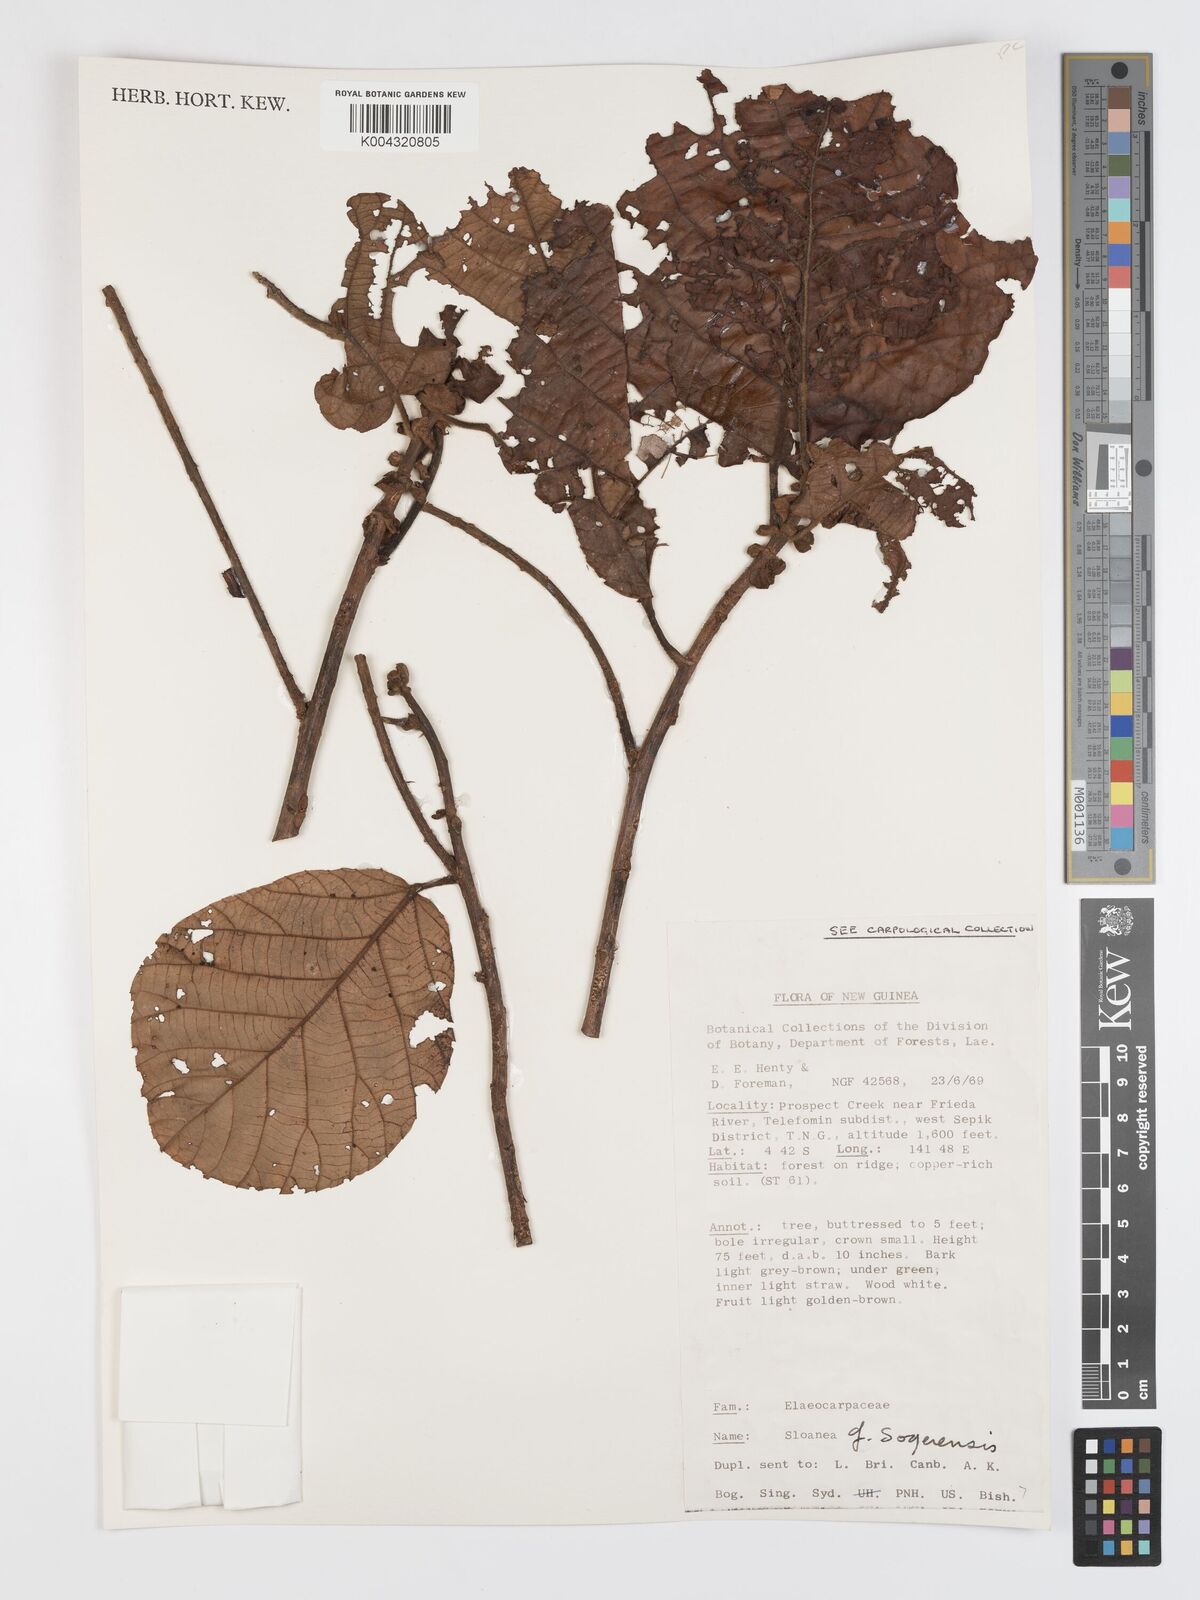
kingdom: Plantae
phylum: Tracheophyta
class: Magnoliopsida
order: Oxalidales
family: Elaeocarpaceae
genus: Sloanea
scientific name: Sloanea sogerensis
